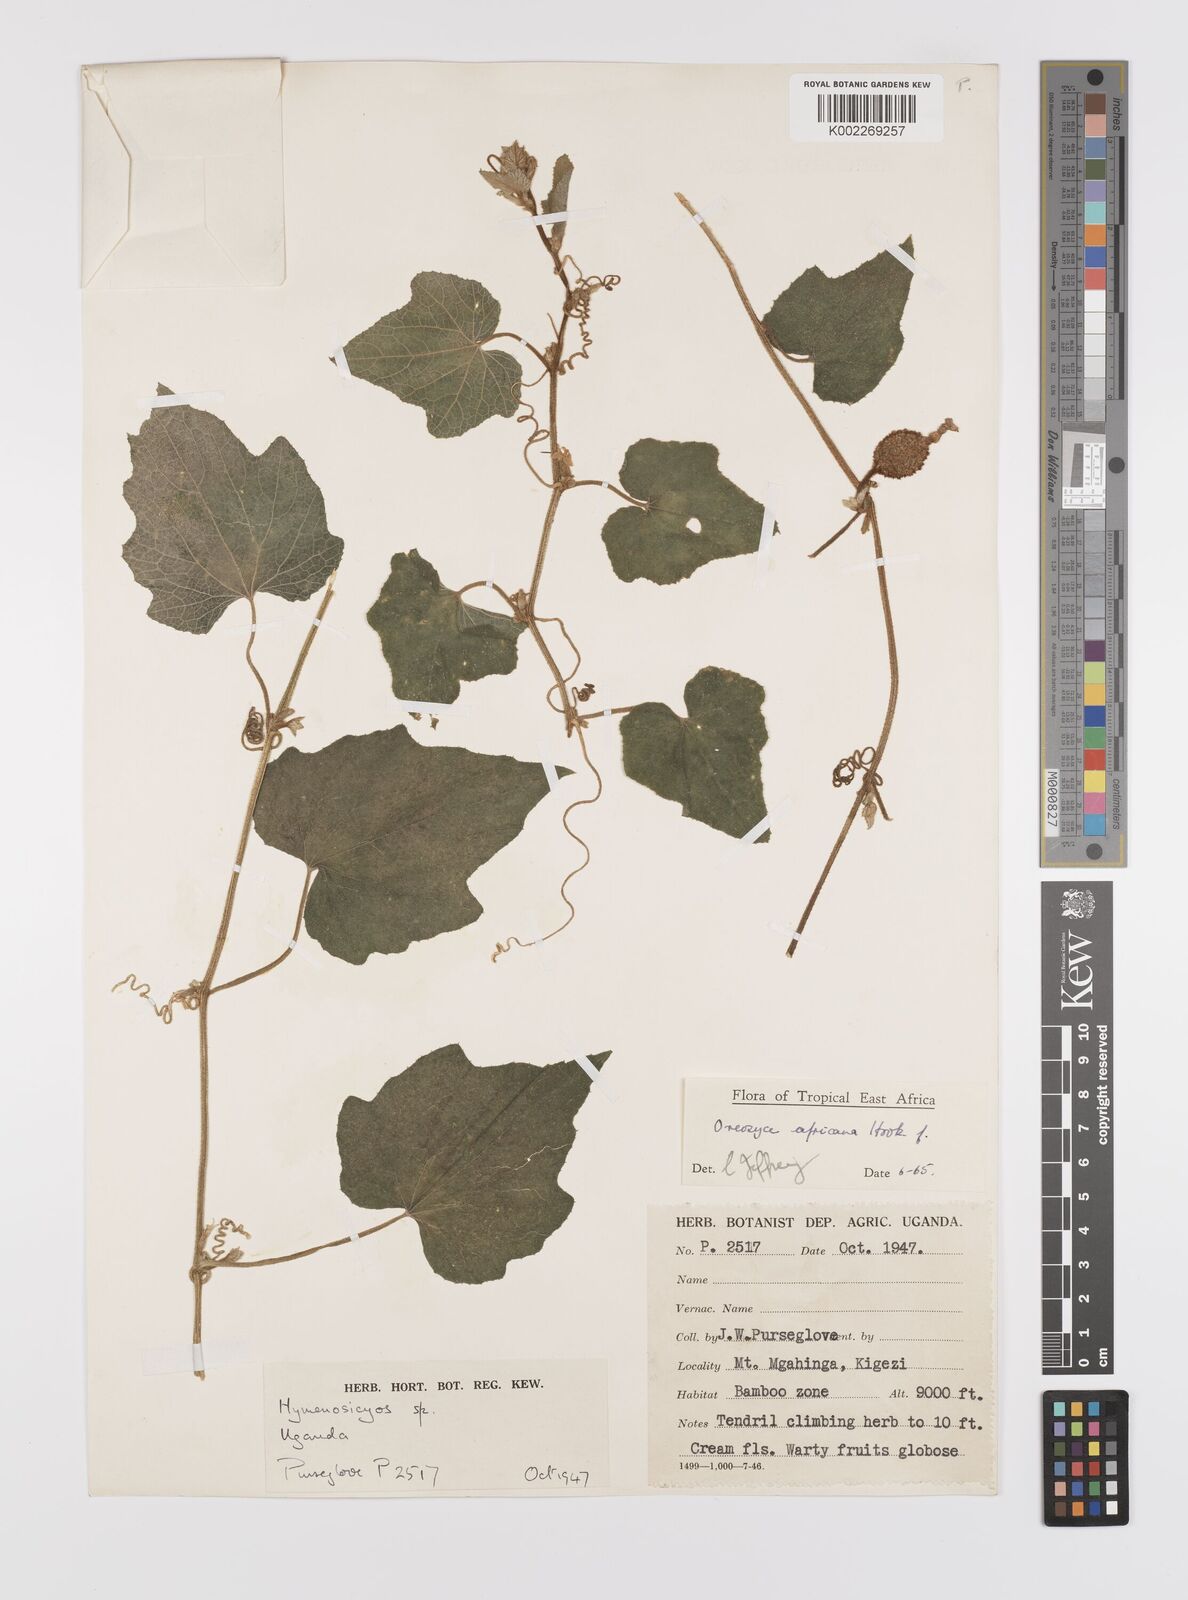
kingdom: Plantae
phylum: Tracheophyta
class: Magnoliopsida
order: Cucurbitales
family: Cucurbitaceae
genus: Cucumis
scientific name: Cucumis oreosyce
